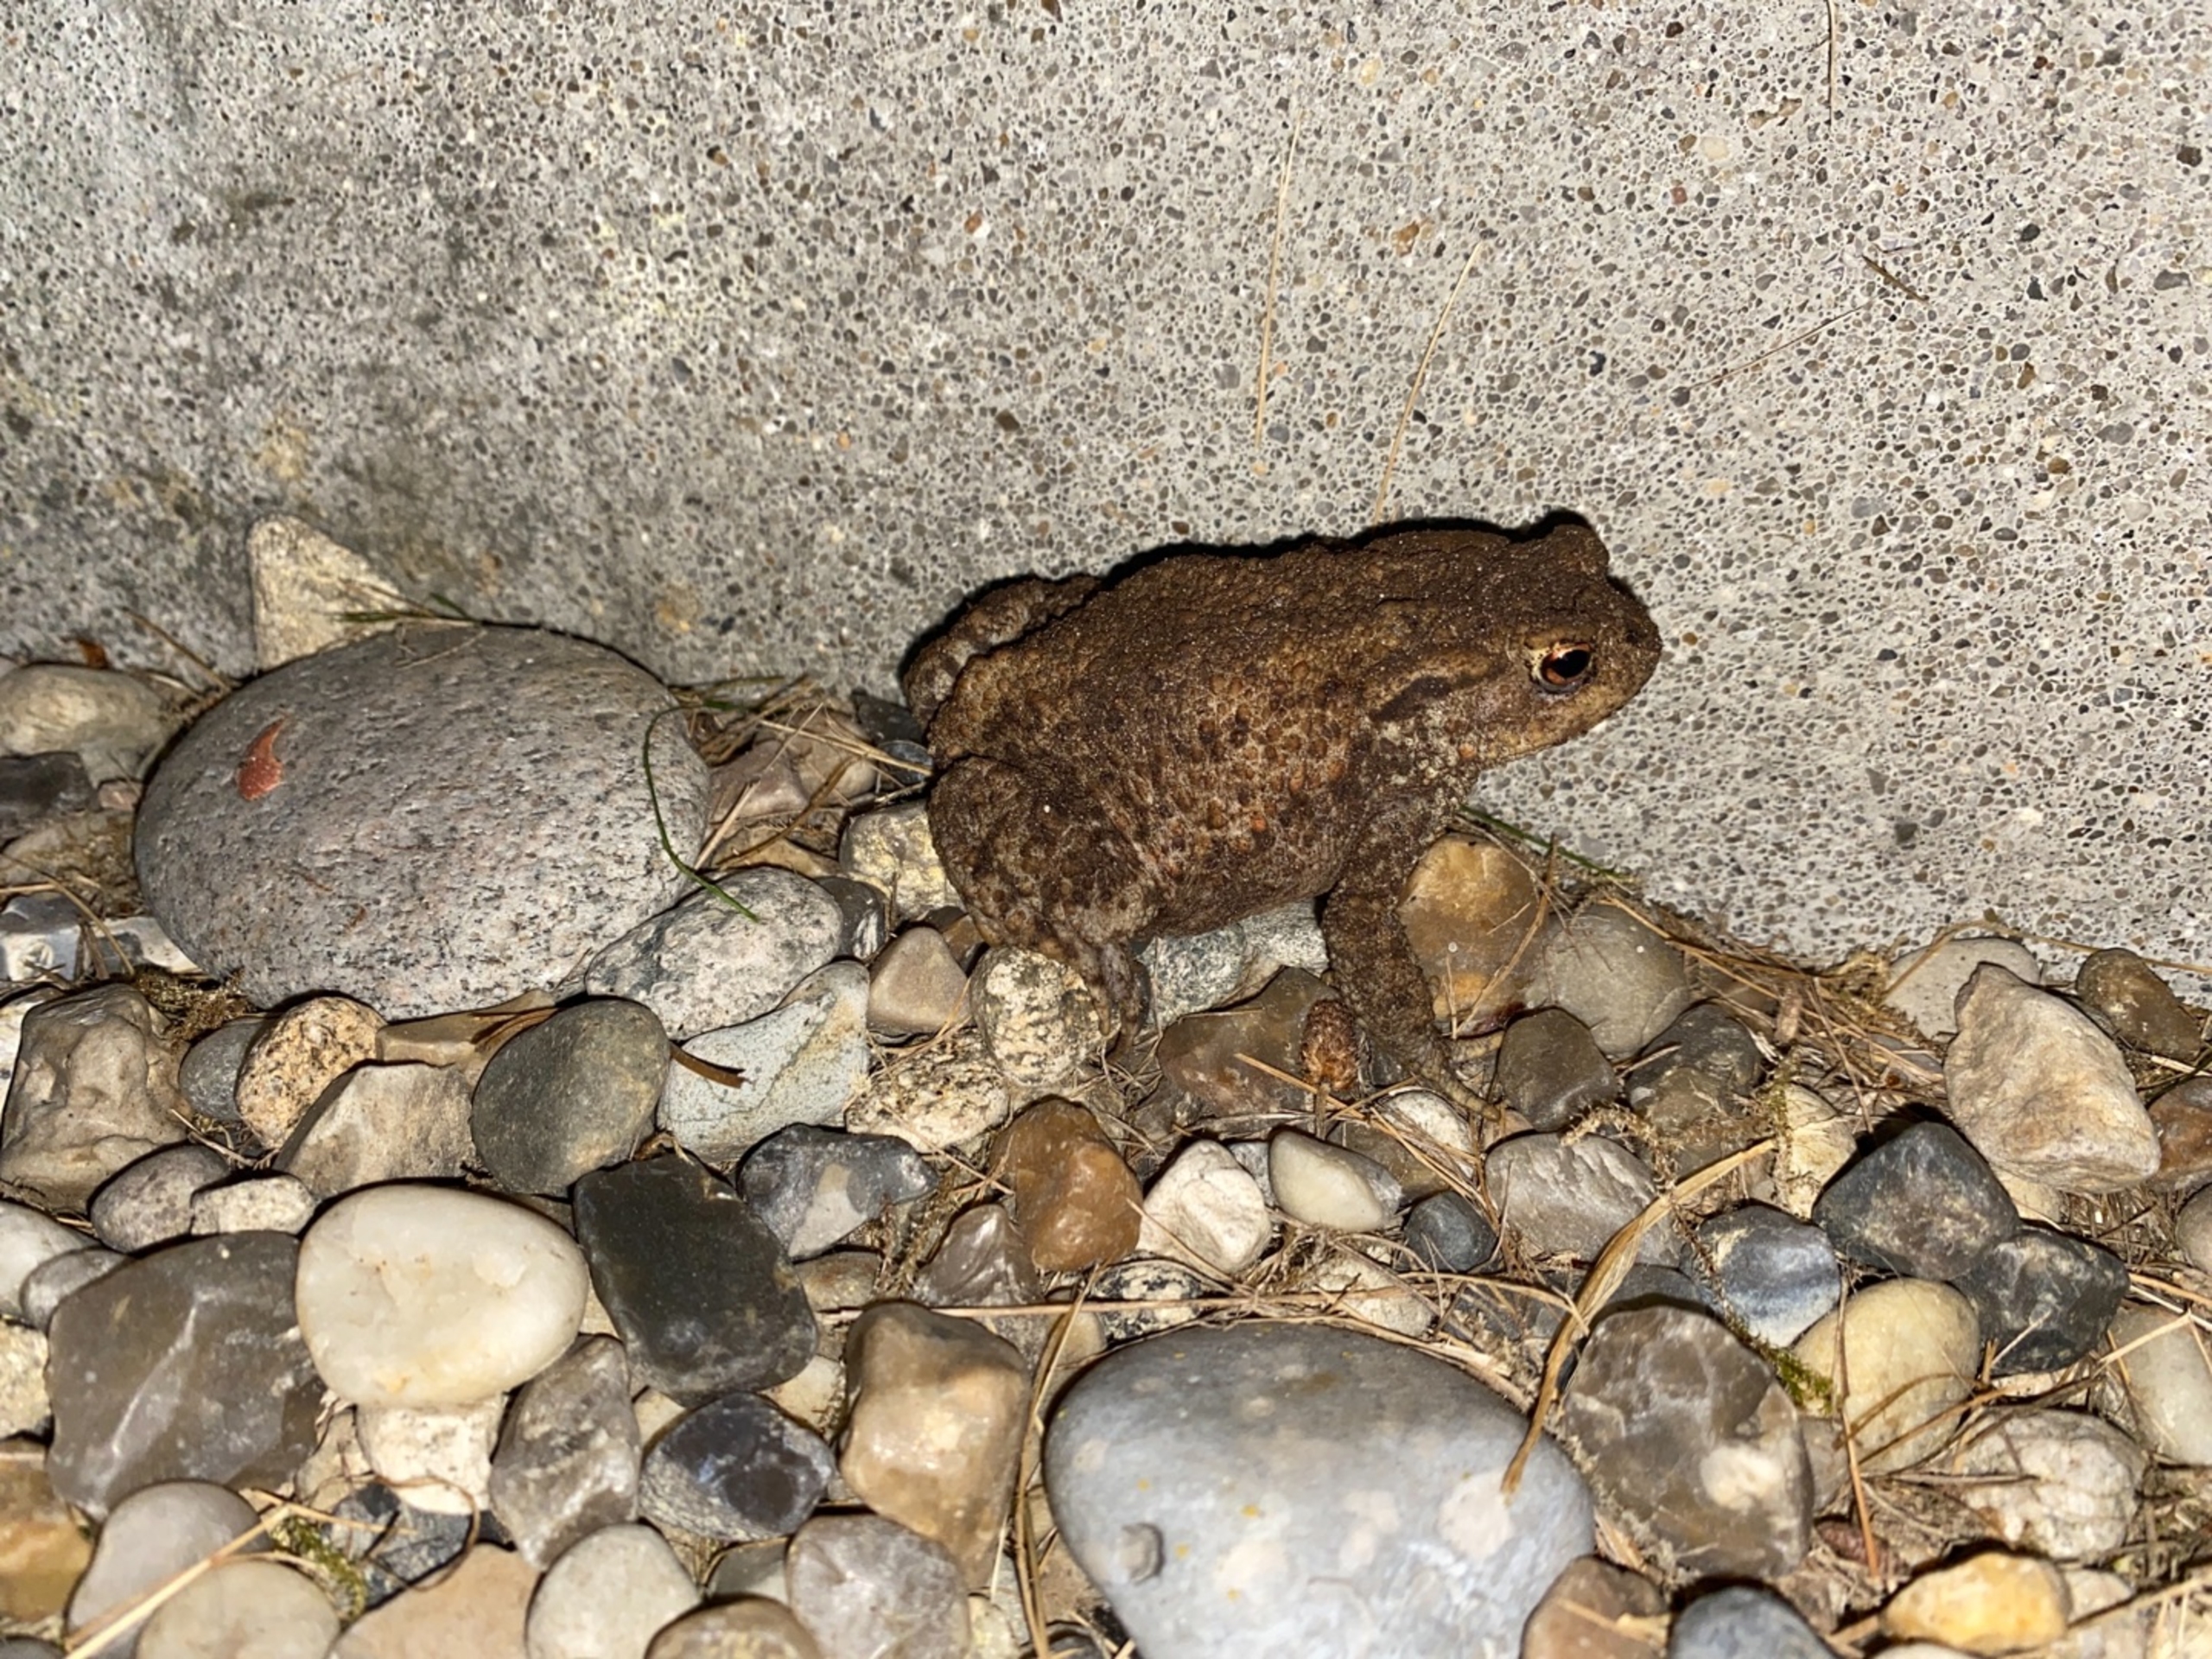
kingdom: Animalia
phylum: Chordata
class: Amphibia
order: Anura
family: Bufonidae
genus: Bufo
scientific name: Bufo bufo
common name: Skrubtudse
